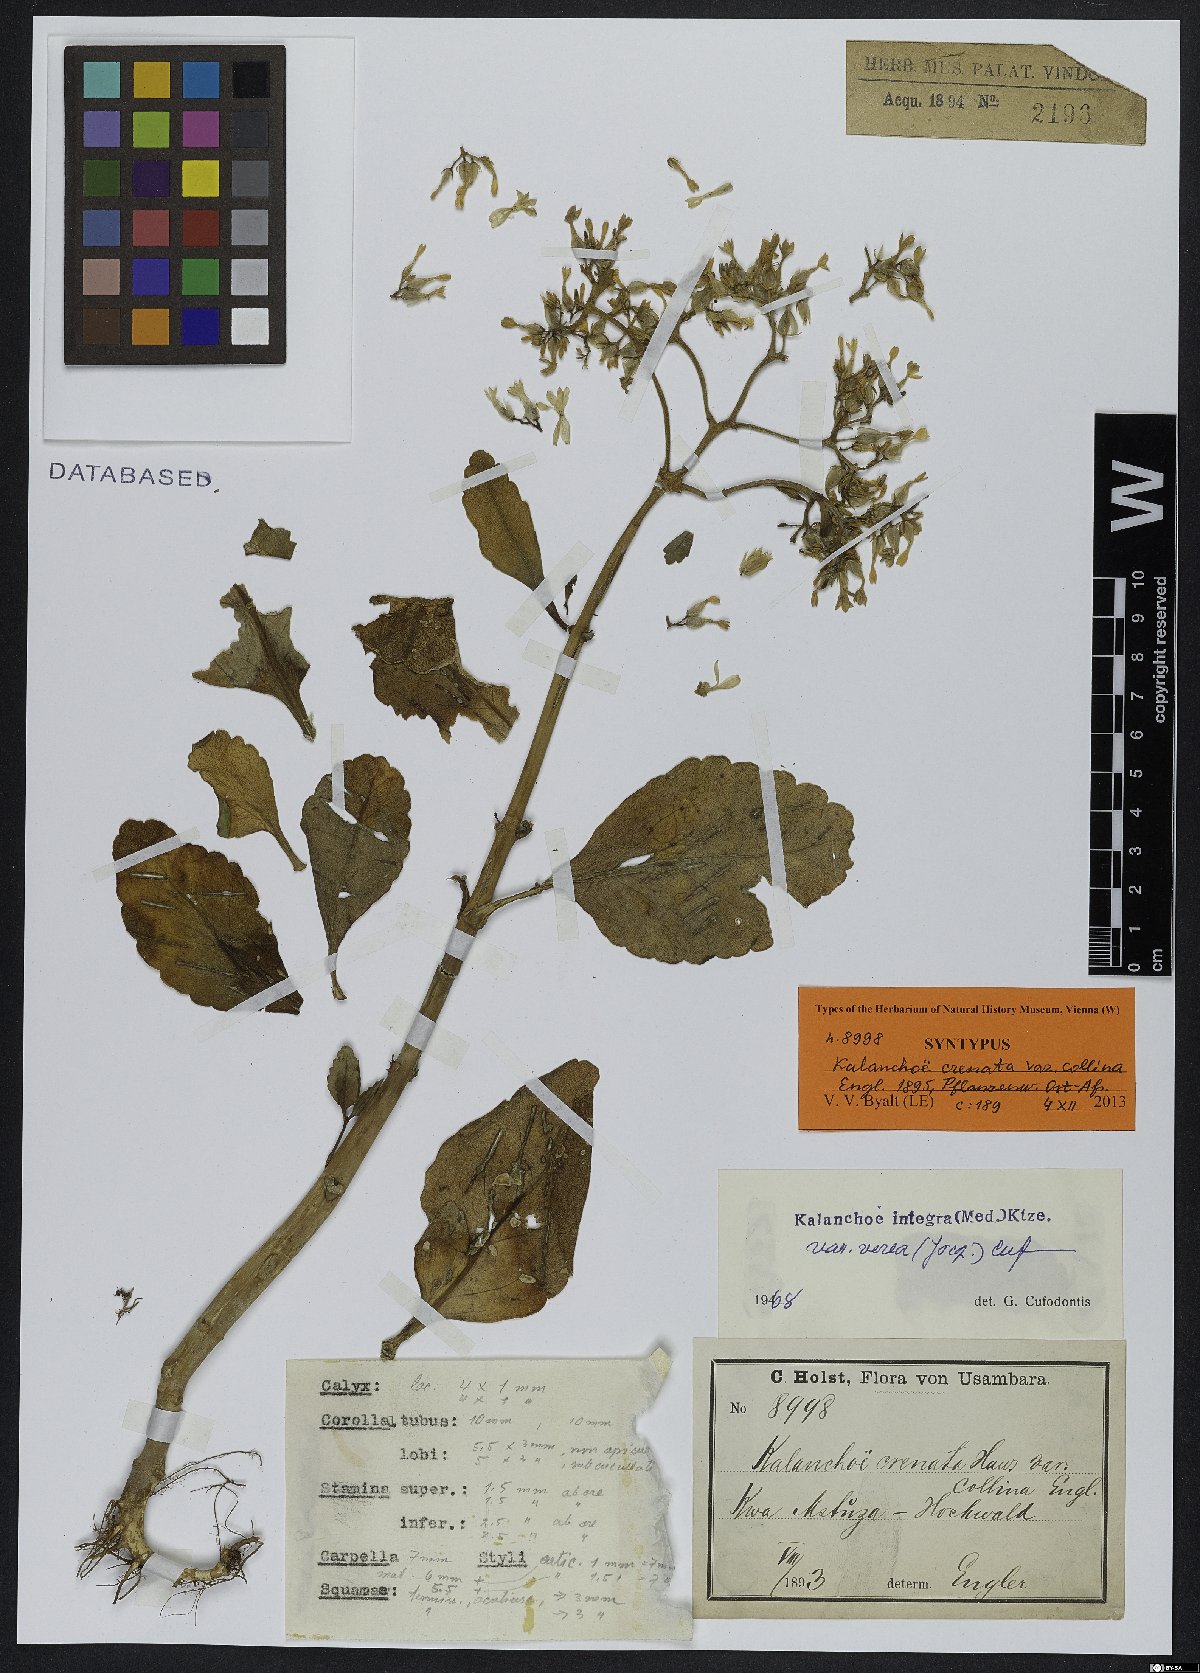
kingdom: Plantae
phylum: Tracheophyta
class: Magnoliopsida
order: Saxifragales
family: Crassulaceae
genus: Kalanchoe
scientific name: Kalanchoe crenata
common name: Neverdie
